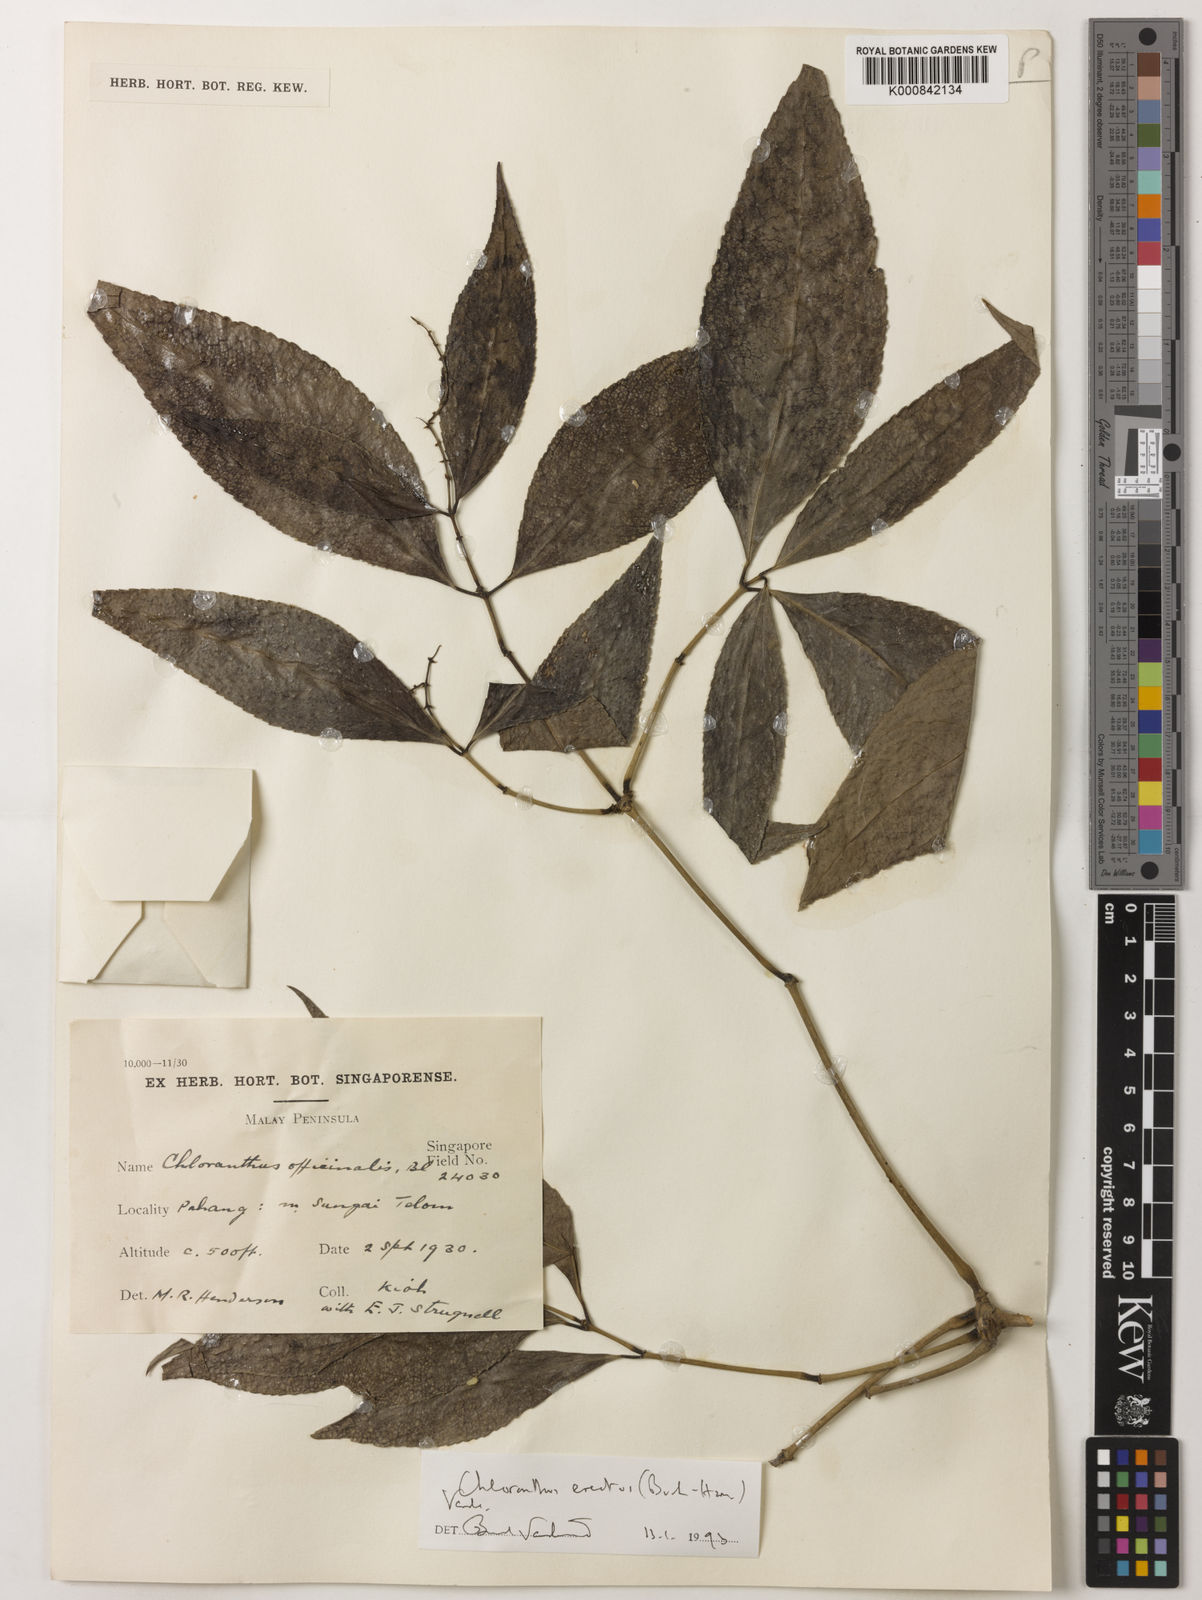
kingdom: Plantae
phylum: Tracheophyta
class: Magnoliopsida
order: Chloranthales
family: Chloranthaceae
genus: Chloranthus
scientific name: Chloranthus
